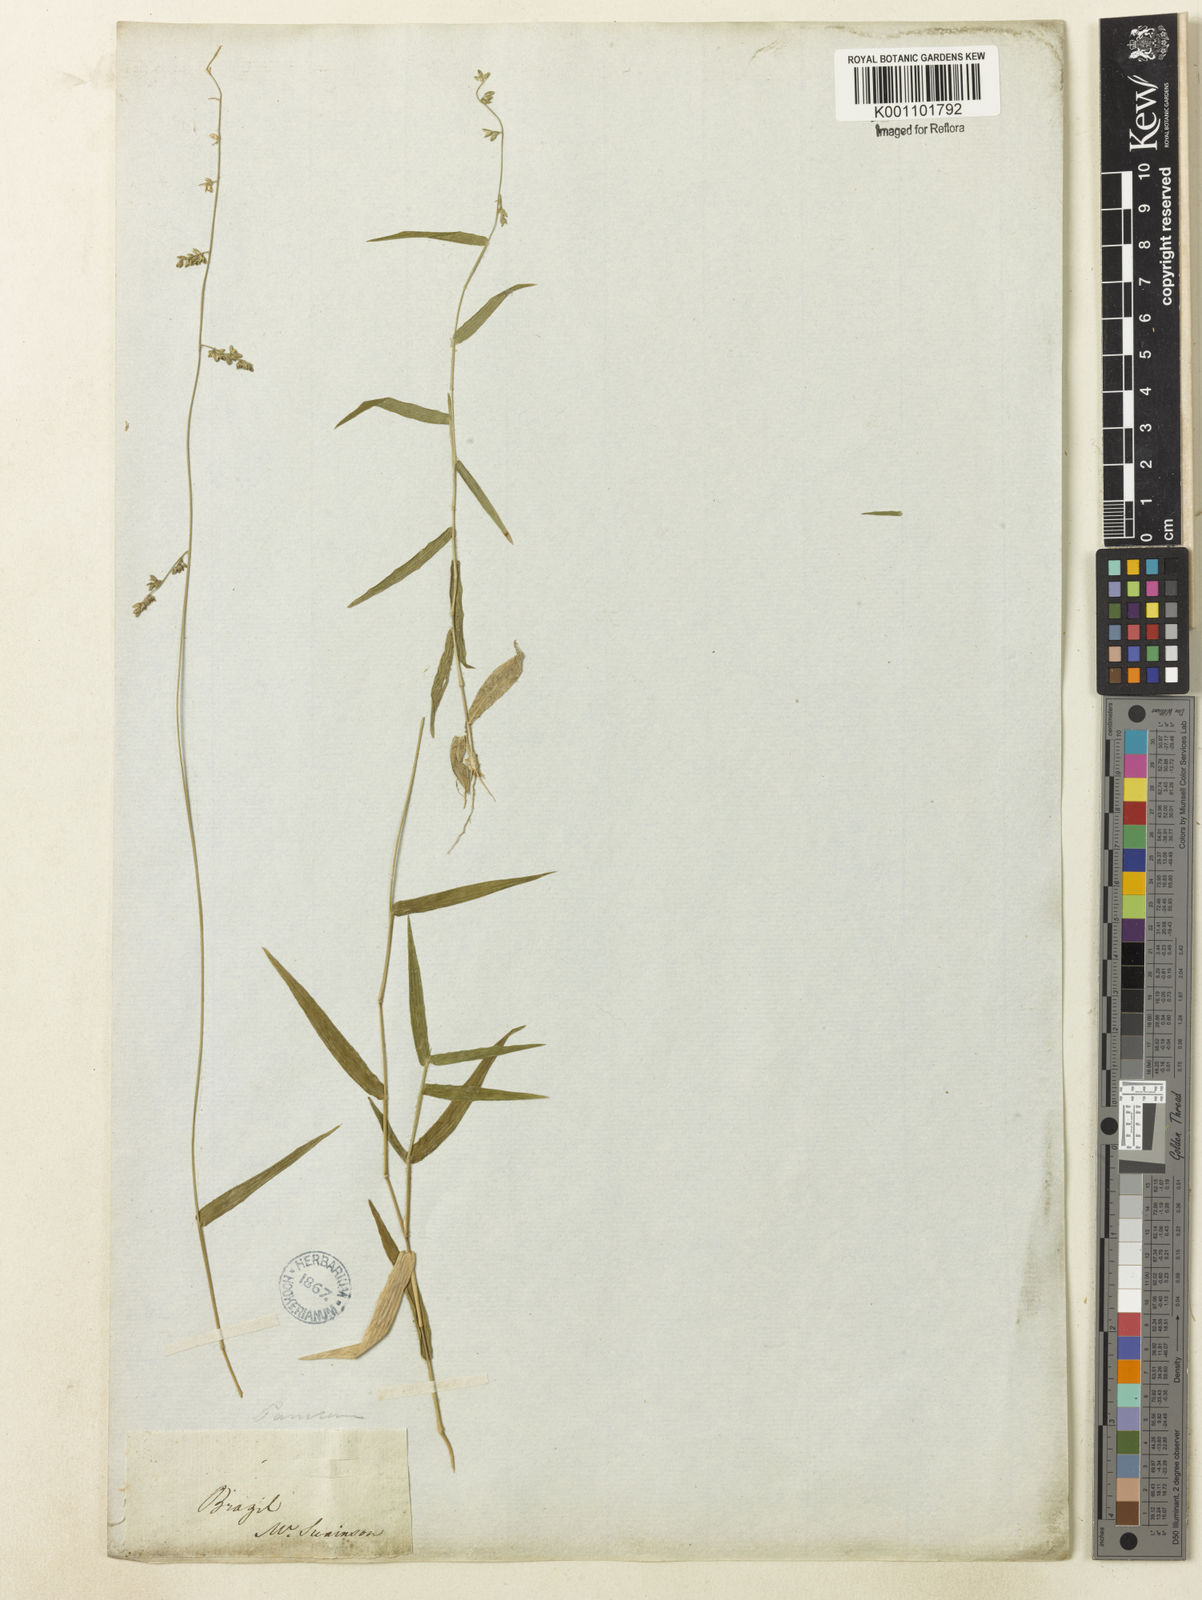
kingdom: Plantae
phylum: Tracheophyta
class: Liliopsida
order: Poales
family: Poaceae
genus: Panicum
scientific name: Panicum venezuelae
